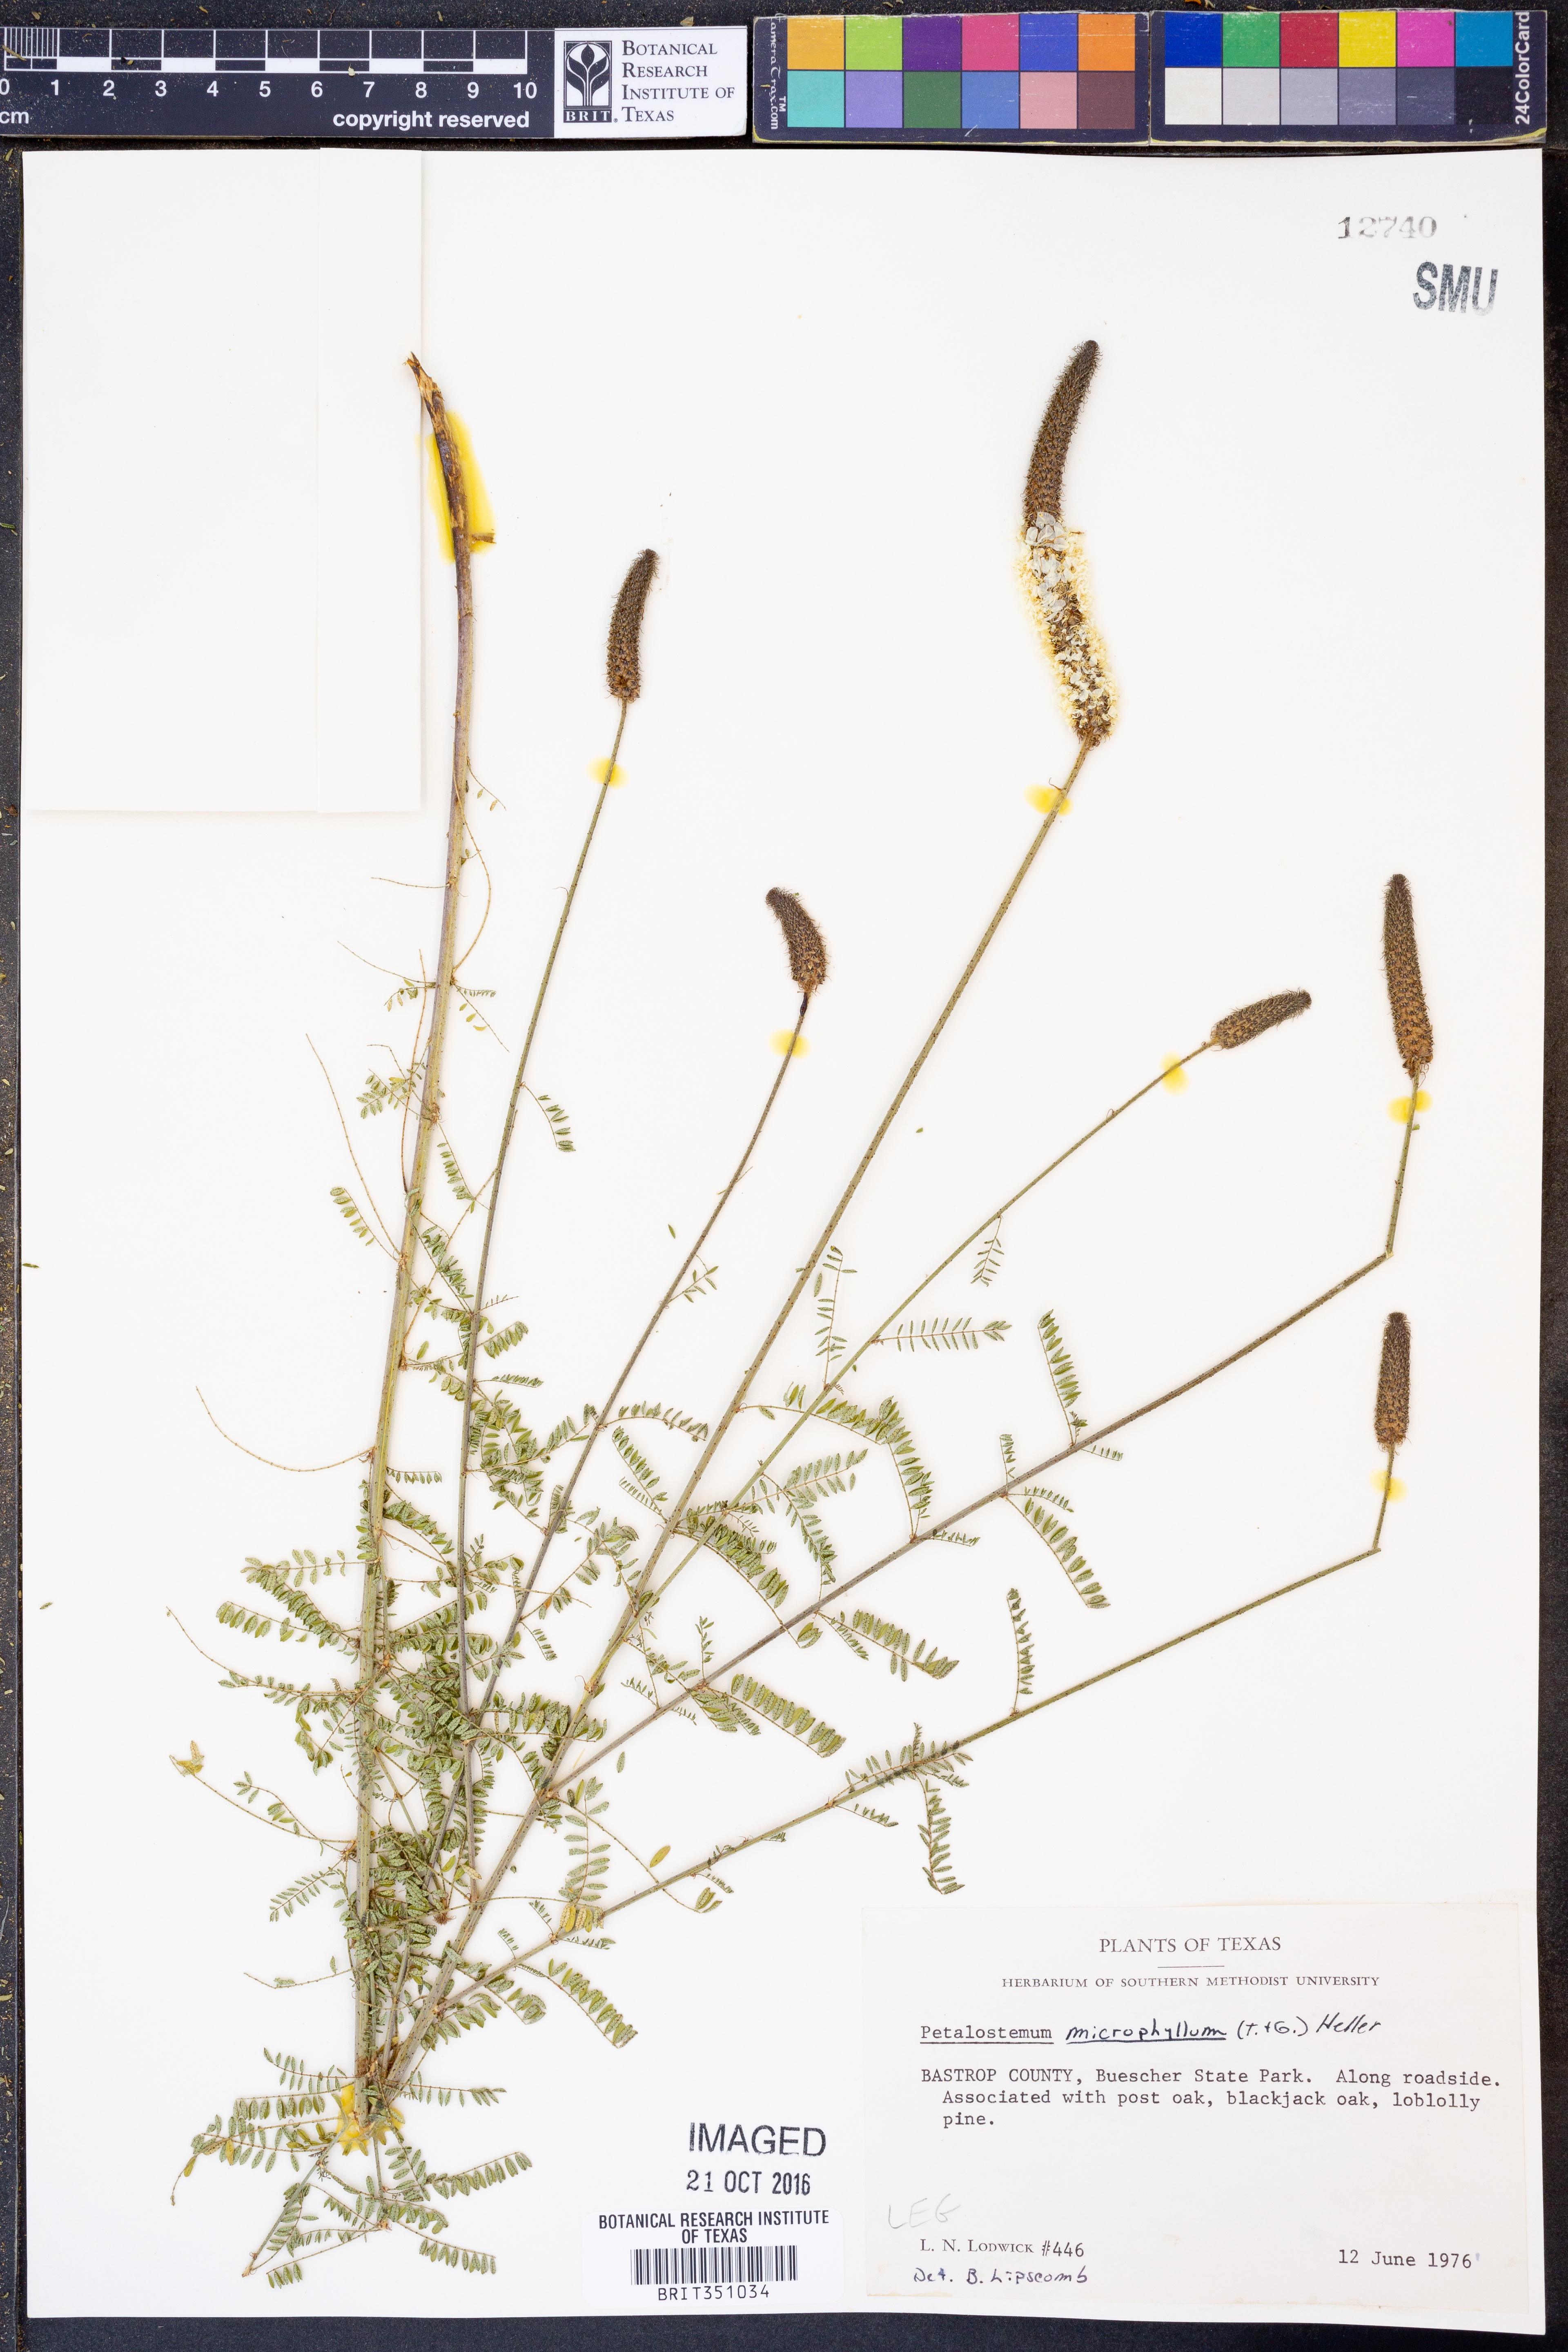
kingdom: Plantae
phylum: Tracheophyta
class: Magnoliopsida
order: Fabales
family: Fabaceae
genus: Dalea
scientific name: Dalea drummondiana
